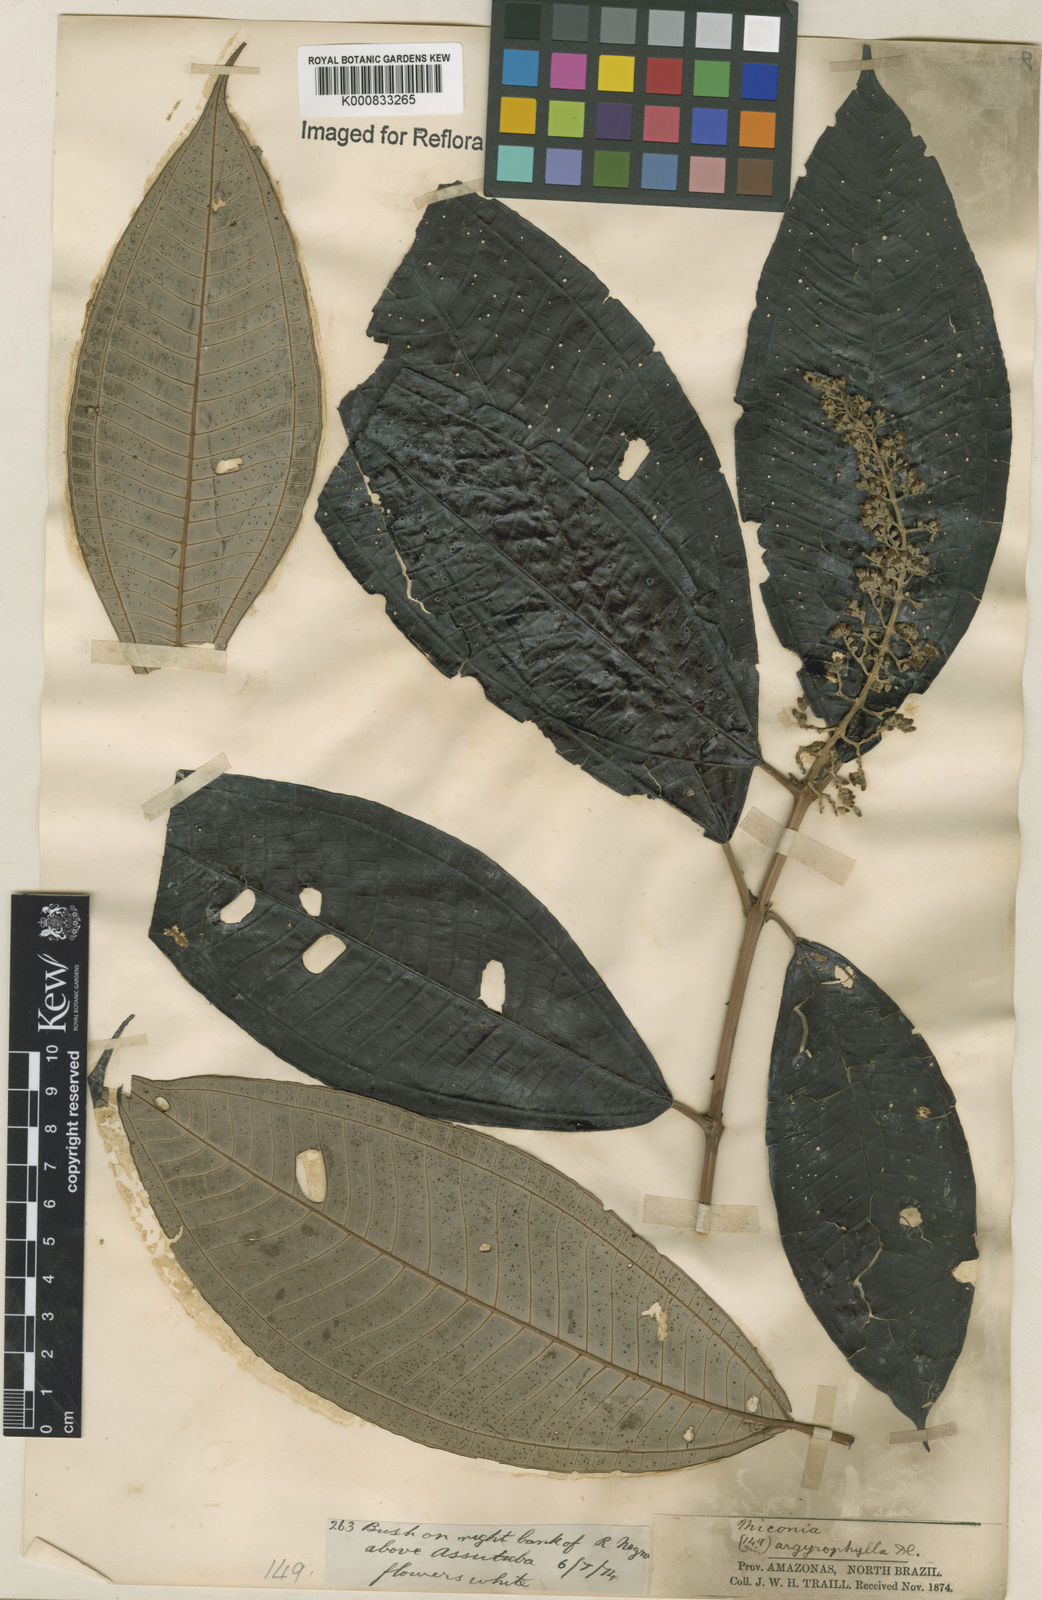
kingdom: Plantae
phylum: Tracheophyta
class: Magnoliopsida
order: Myrtales
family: Melastomataceae
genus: Miconia
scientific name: Miconia argyrophylla
